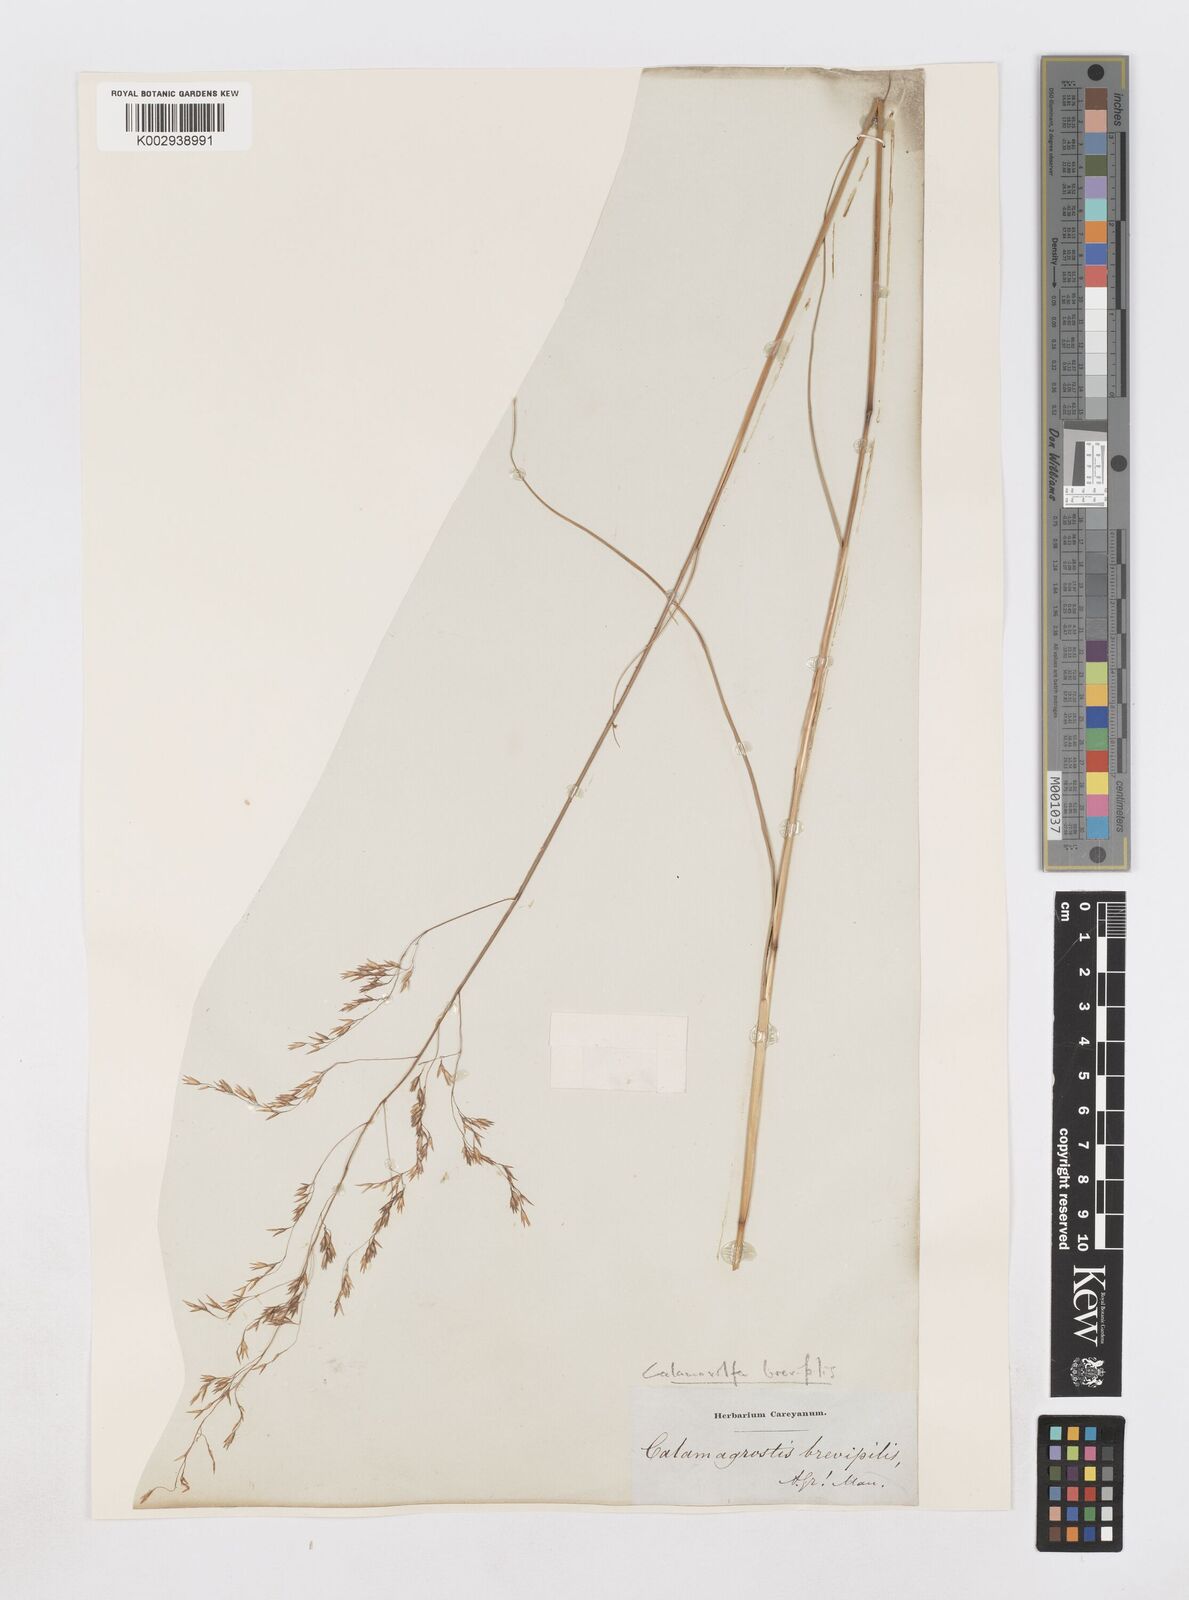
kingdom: Plantae
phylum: Tracheophyta
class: Liliopsida
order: Poales
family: Poaceae
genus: Sporobolus
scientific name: Sporobolus brevipilis
